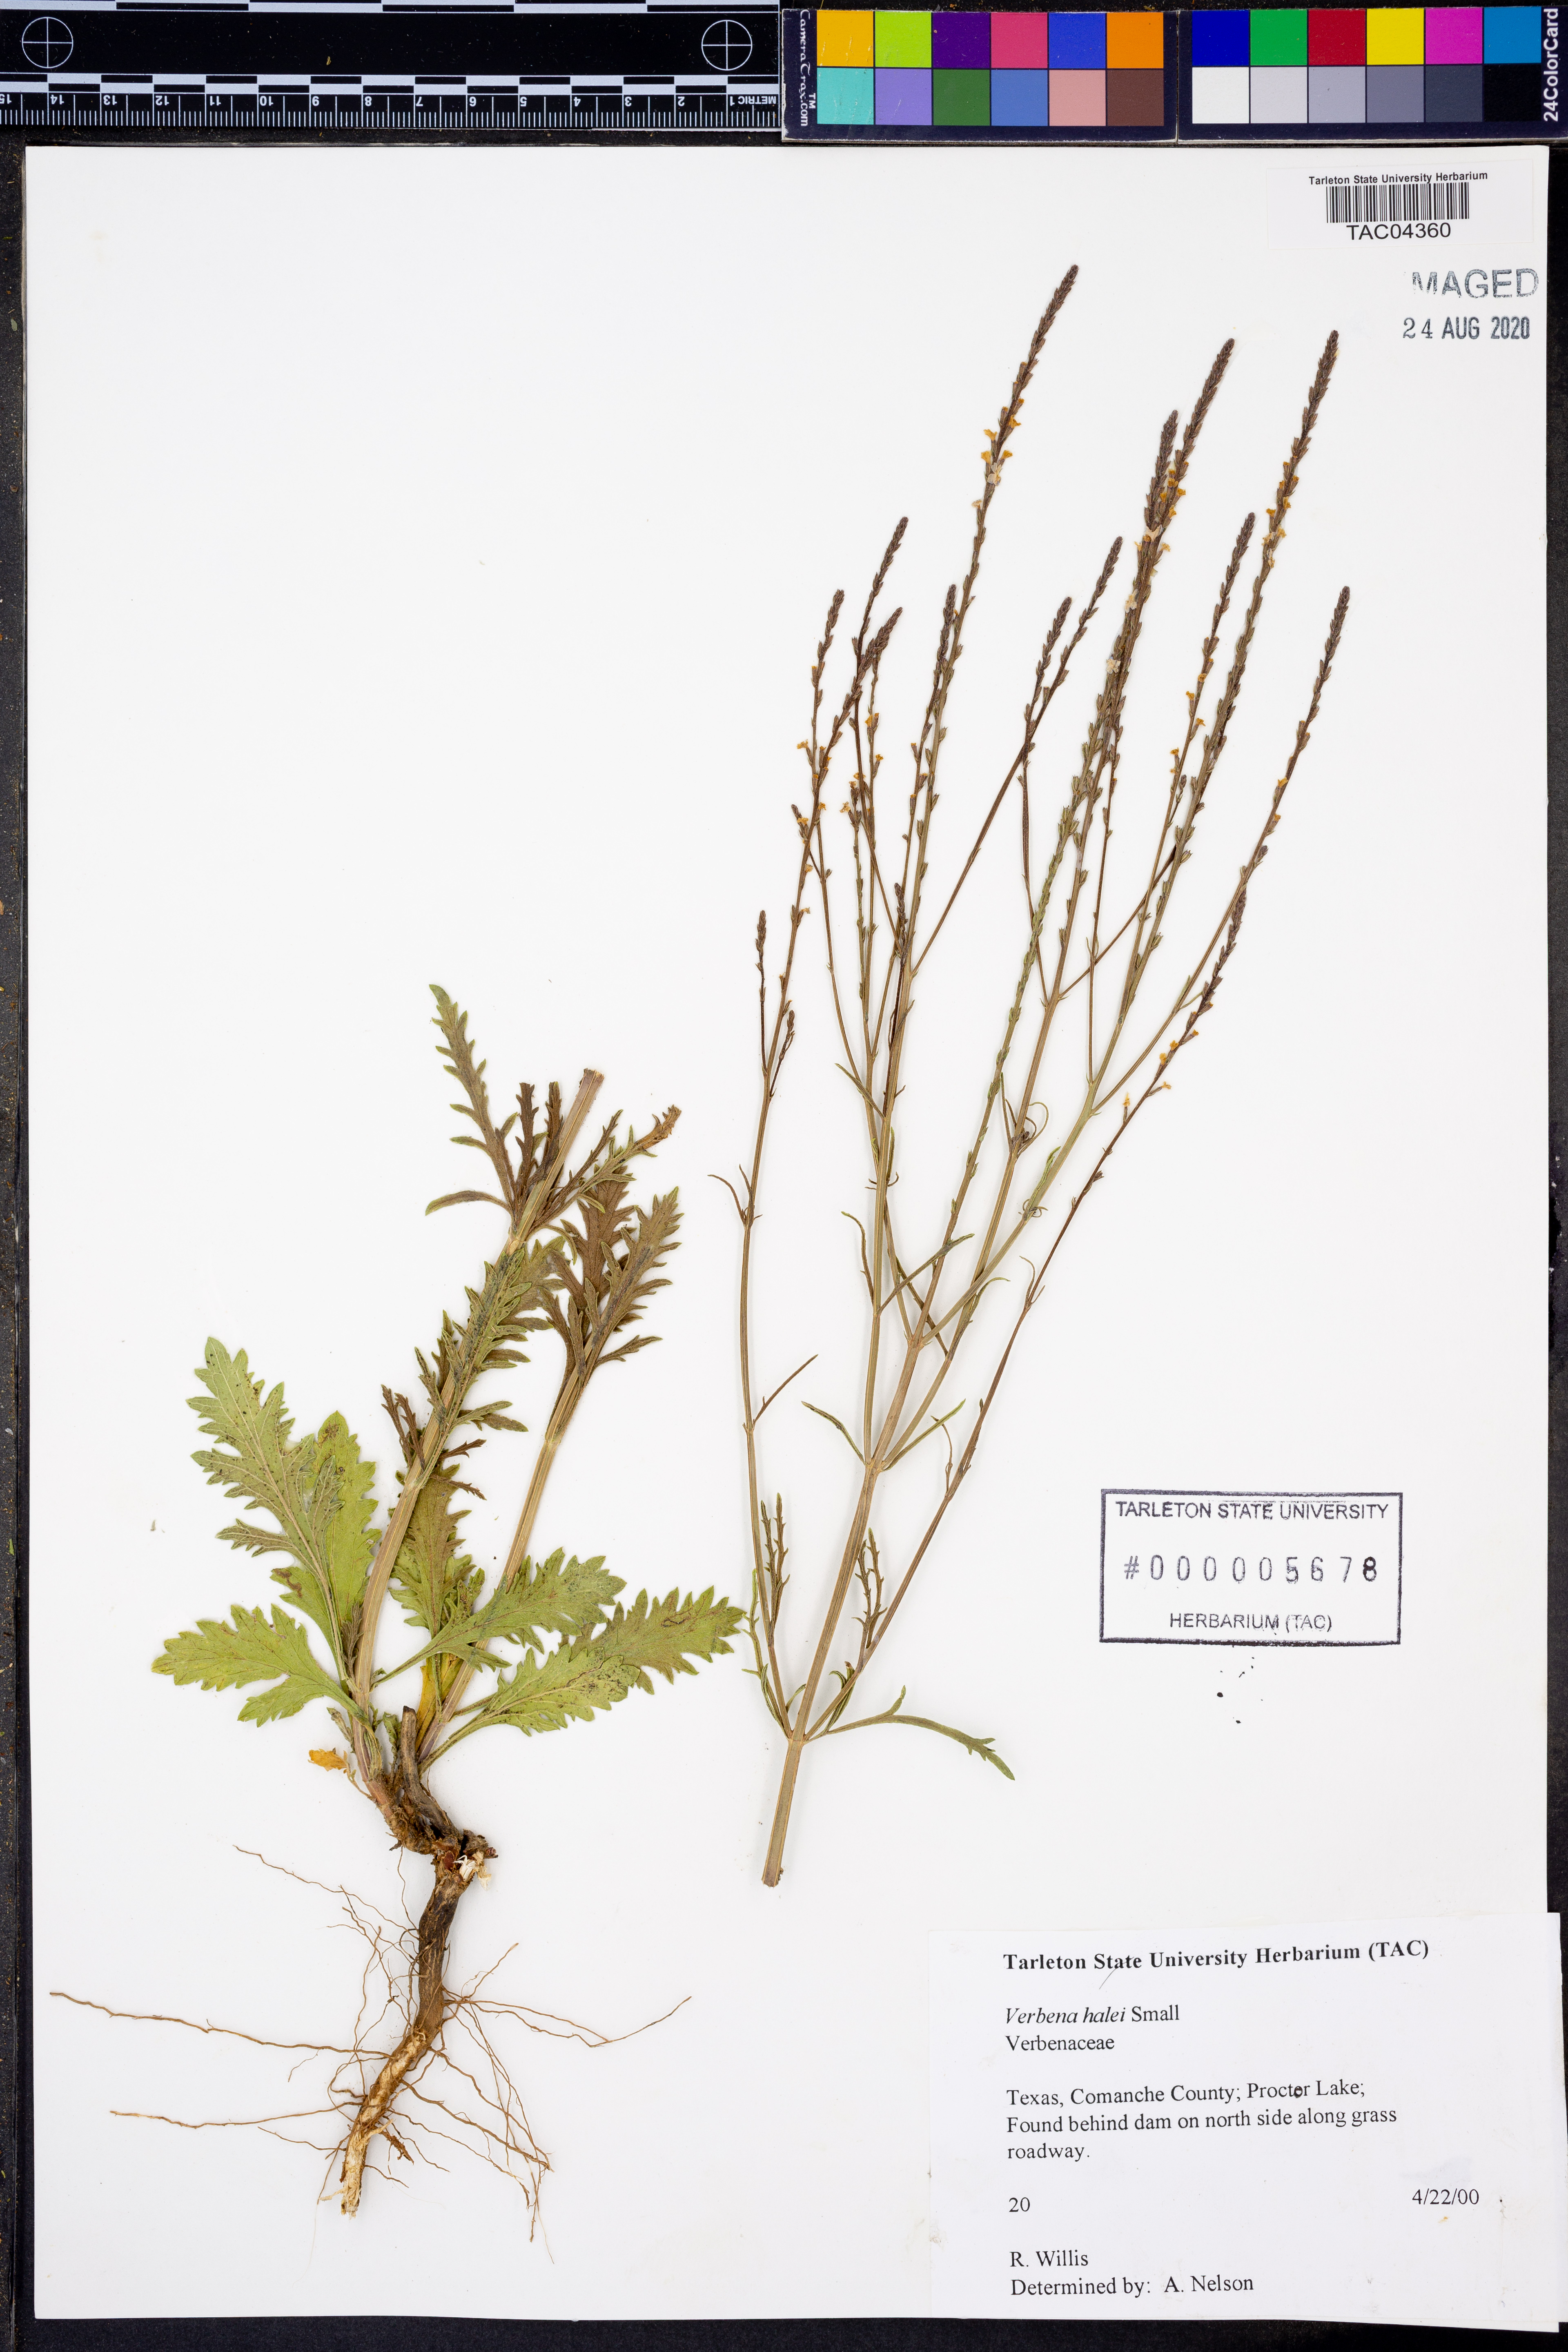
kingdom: Plantae
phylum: Tracheophyta
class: Magnoliopsida
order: Lamiales
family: Verbenaceae
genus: Verbena
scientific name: Verbena halei
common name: Texas vervain
